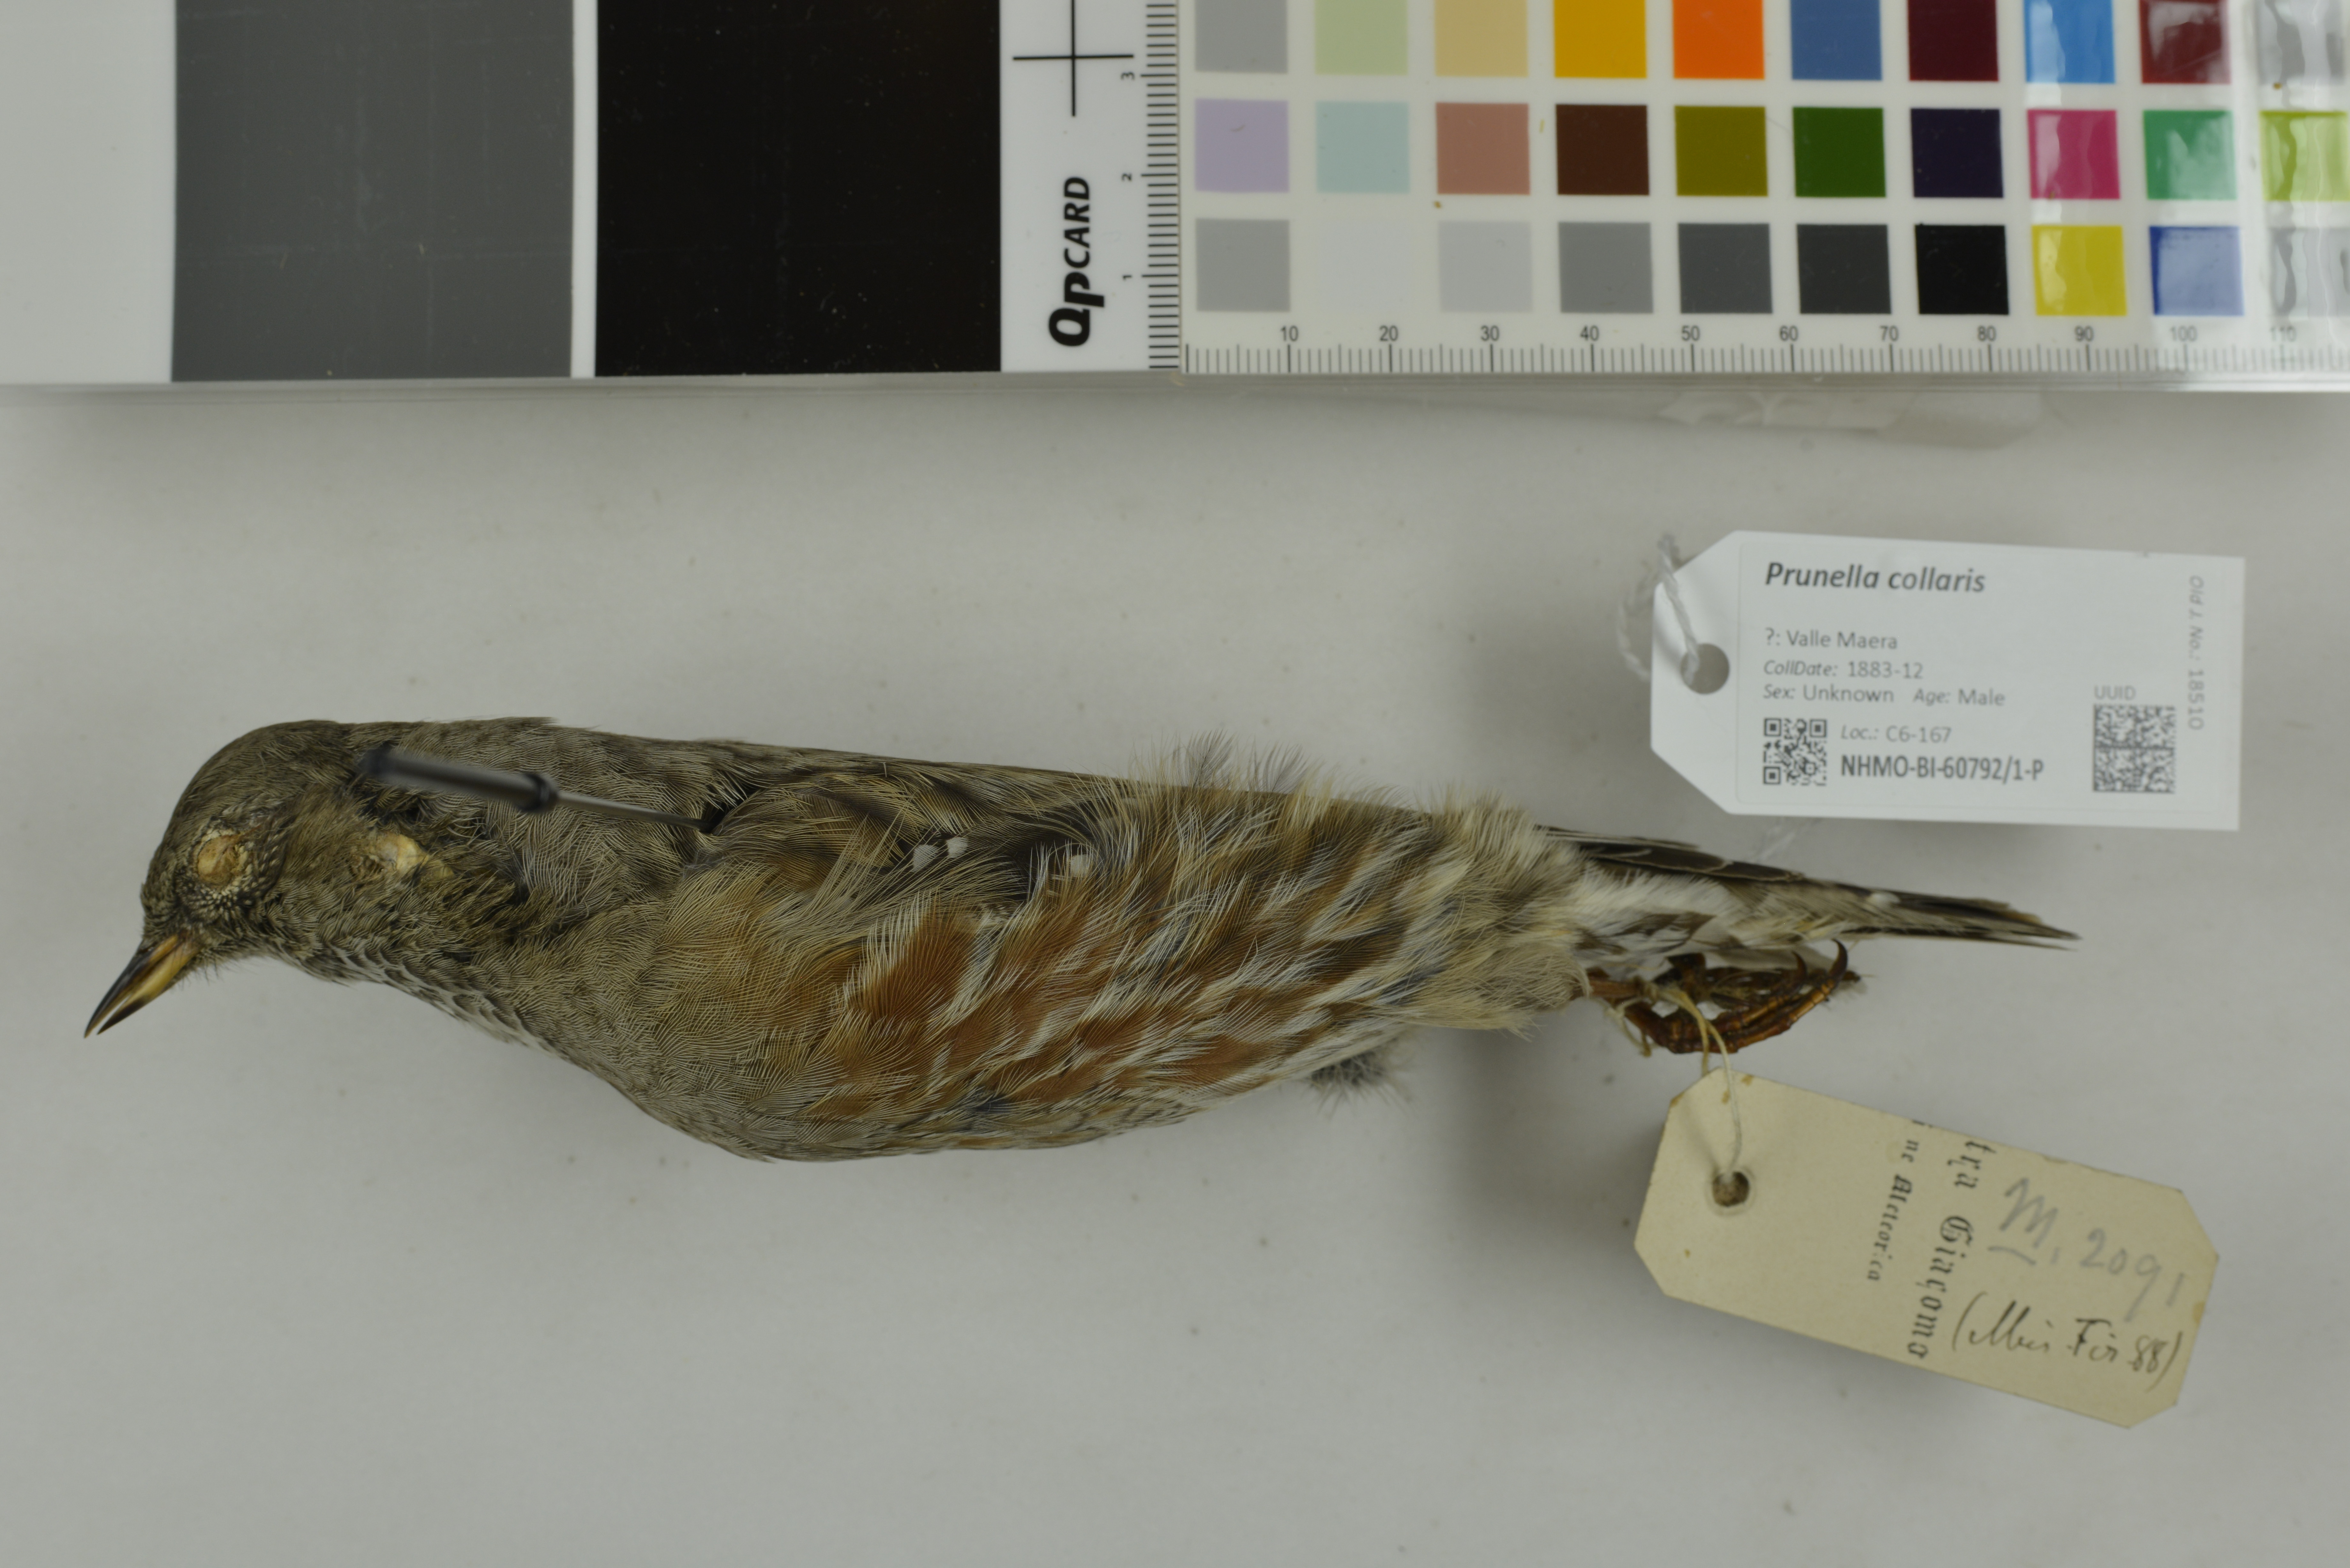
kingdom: Animalia
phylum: Chordata
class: Aves
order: Passeriformes
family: Prunellidae
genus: Prunella
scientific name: Prunella collaris
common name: Alpine accentor
